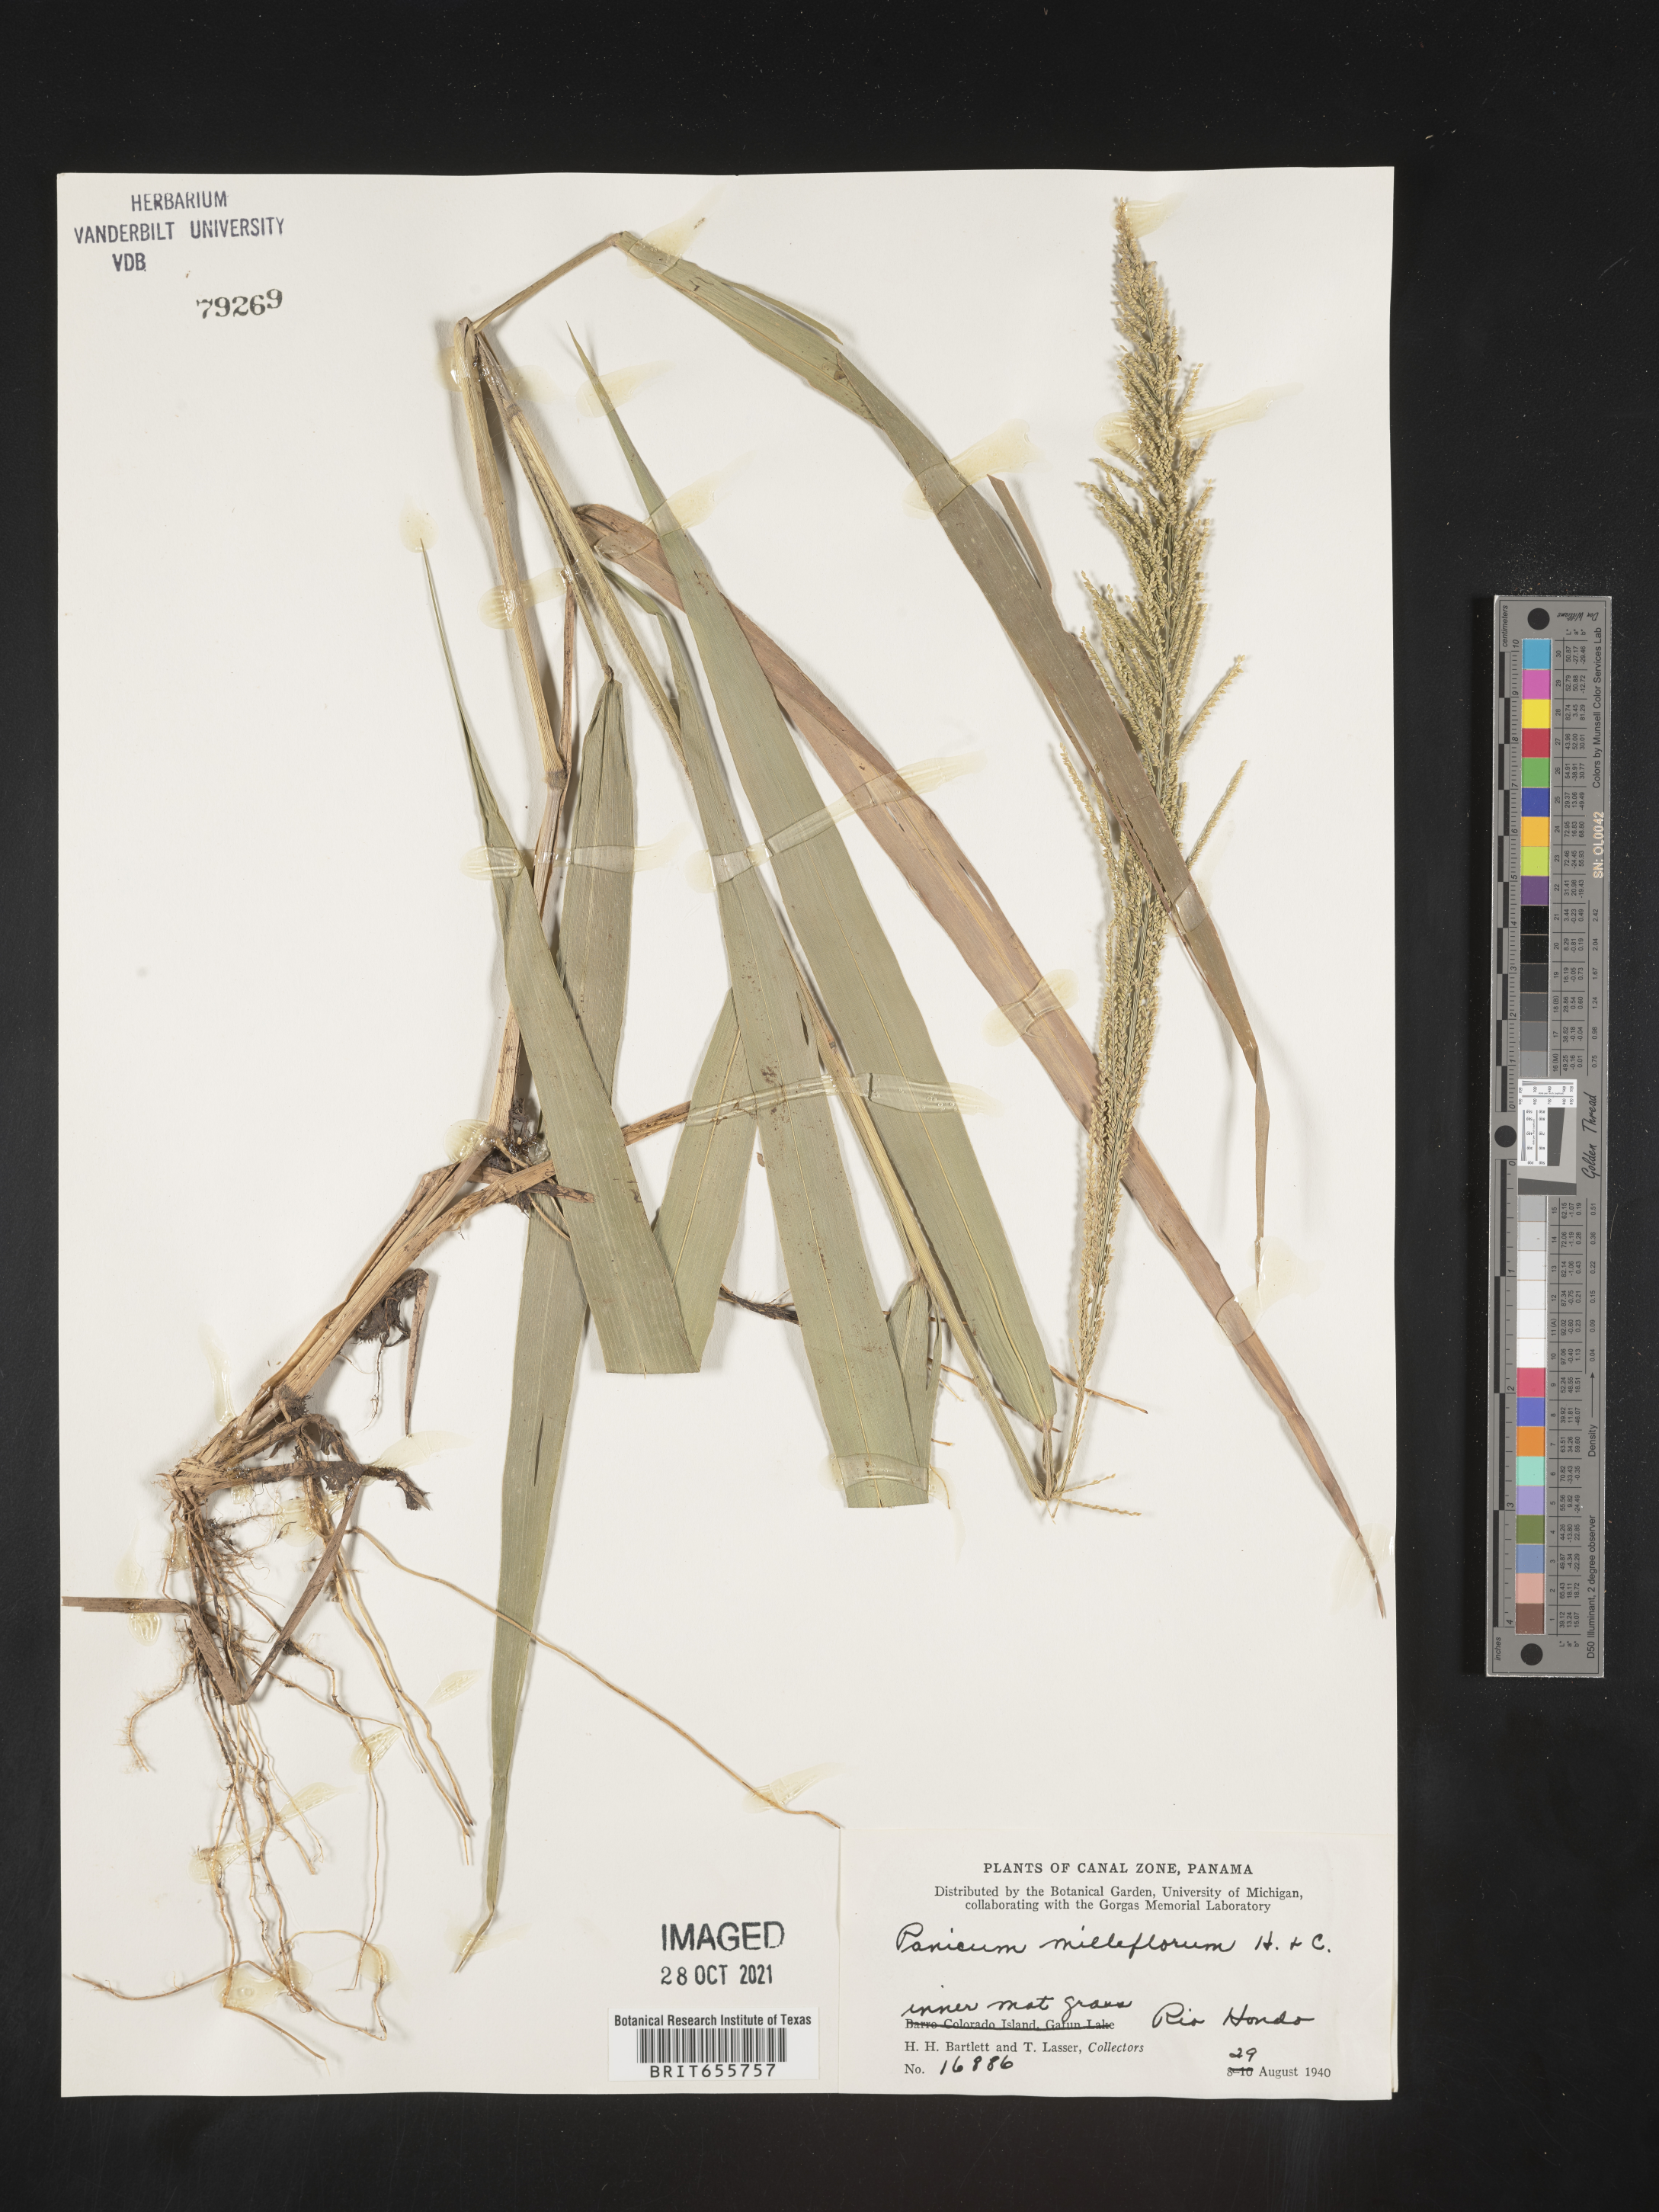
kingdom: Plantae
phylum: Tracheophyta
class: Liliopsida
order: Poales
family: Poaceae
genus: Panicum
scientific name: Panicum
